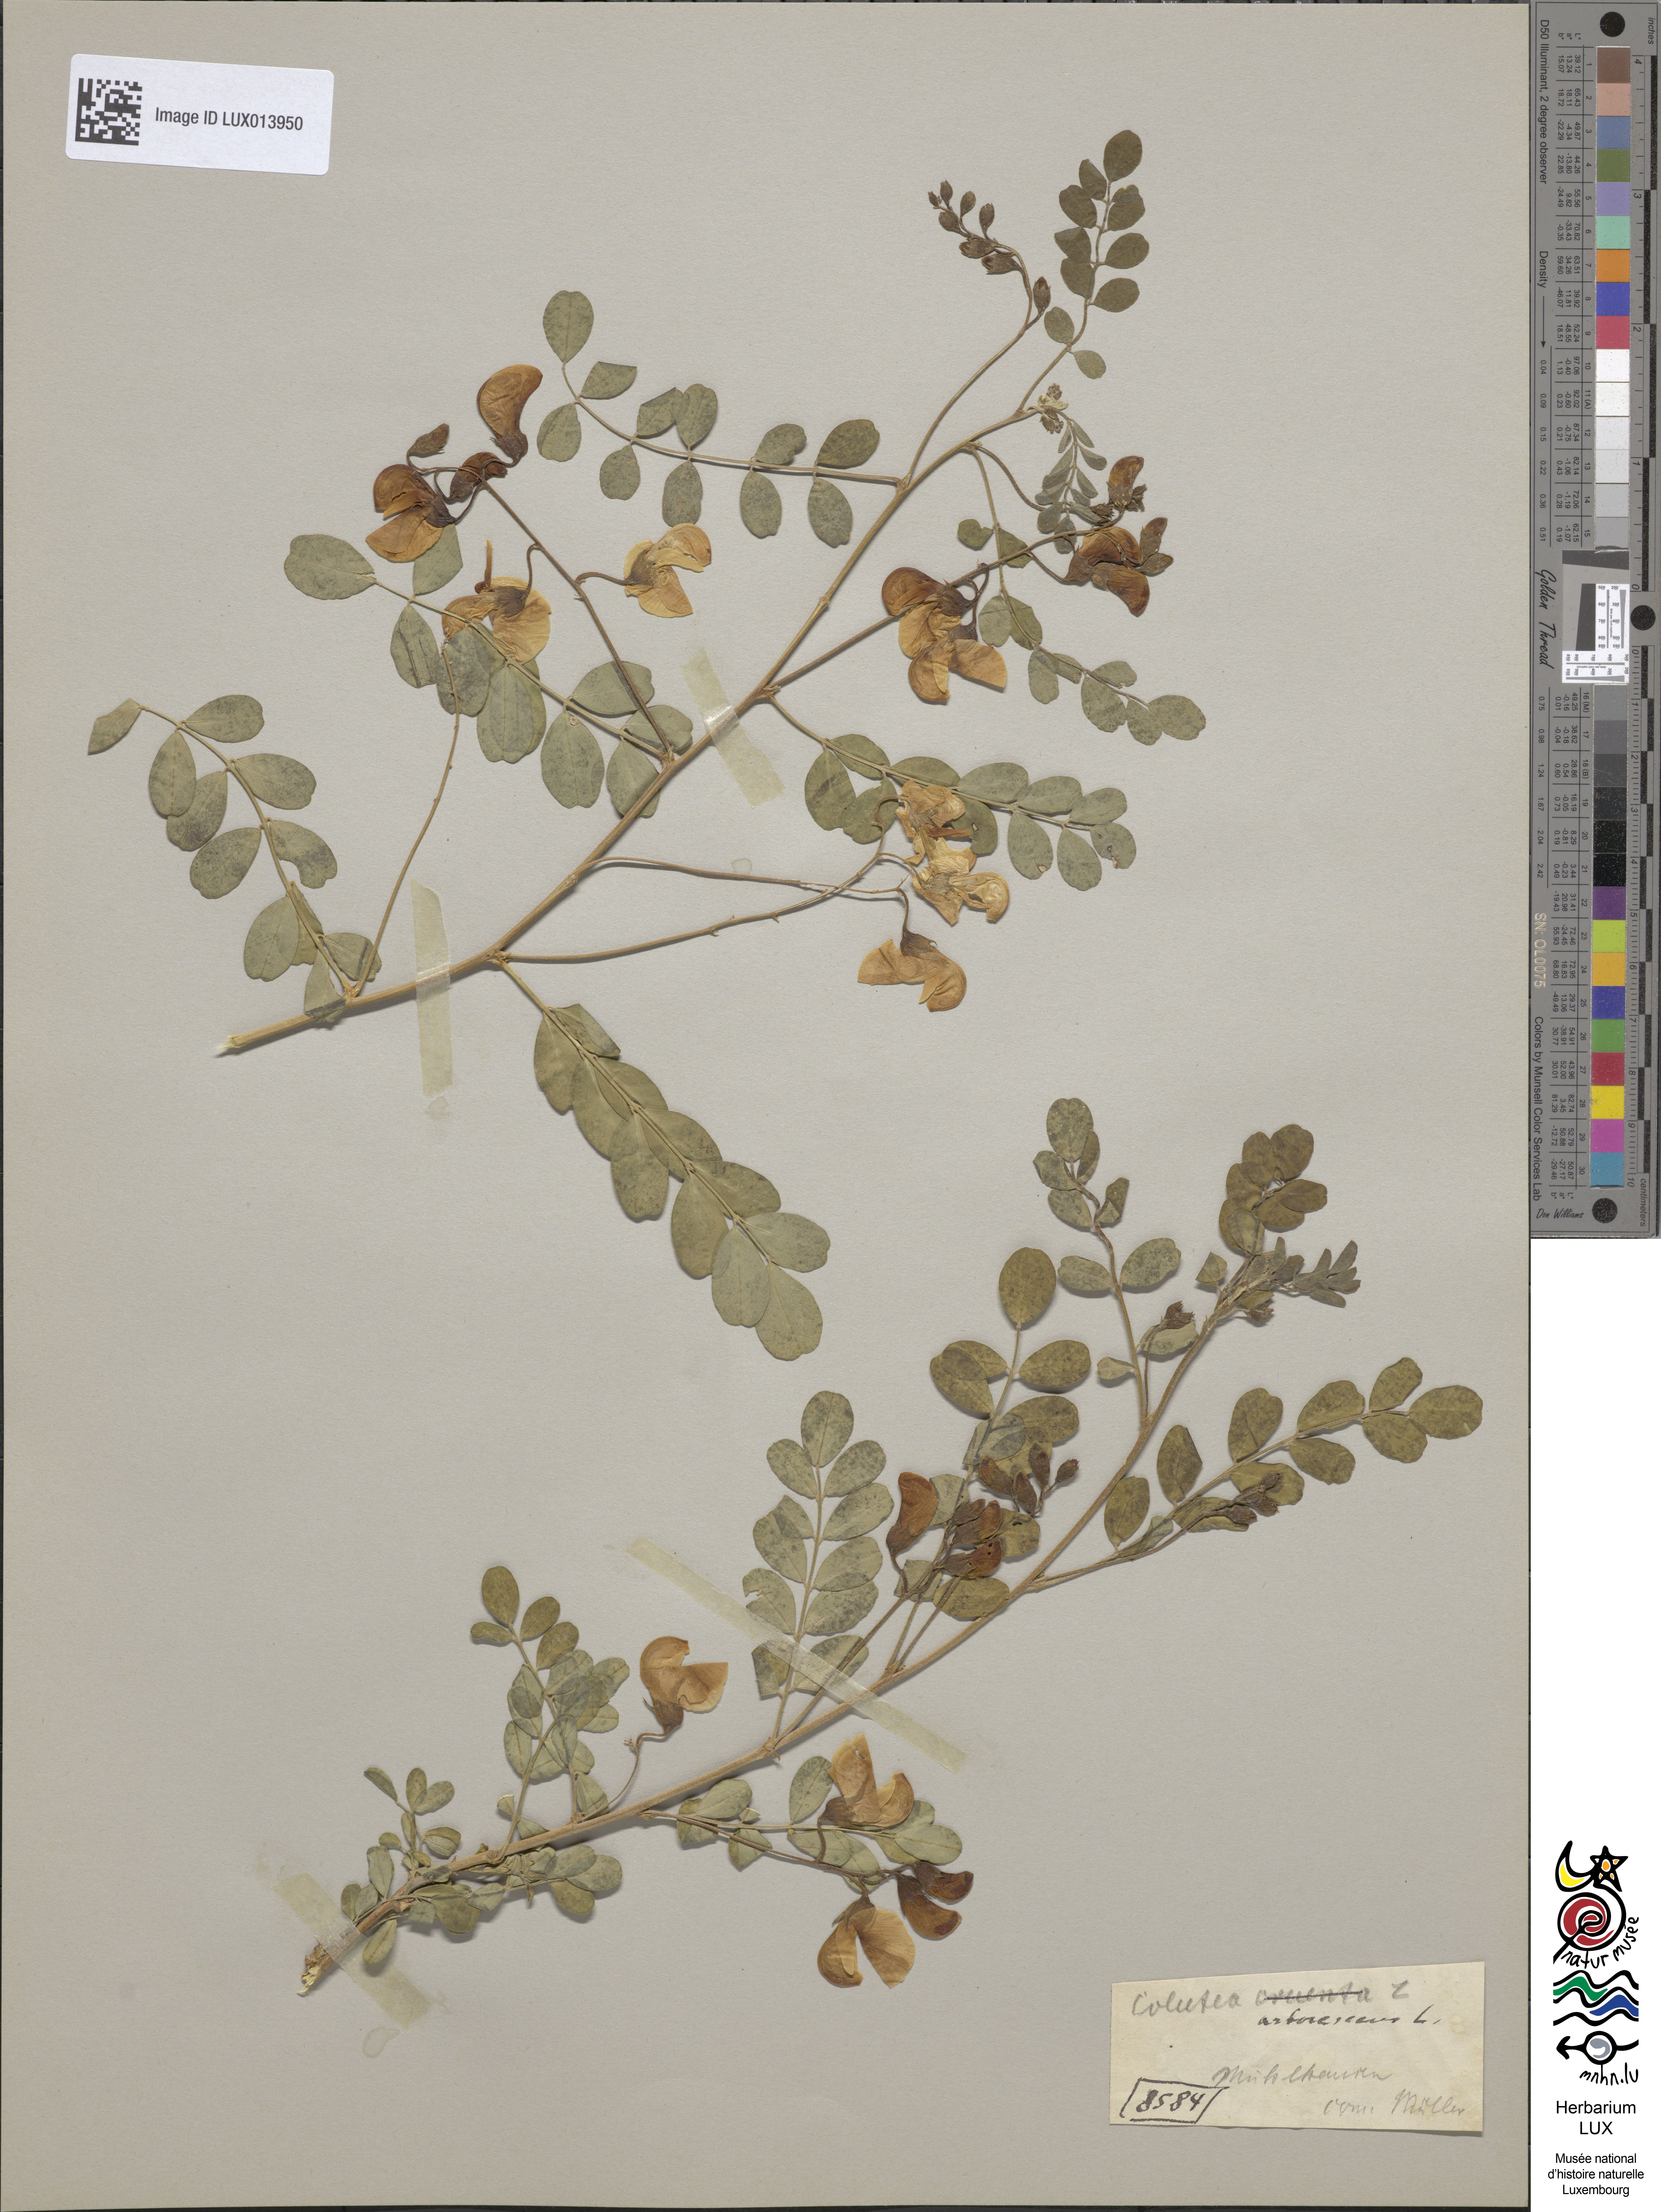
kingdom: Plantae
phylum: Tracheophyta
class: Magnoliopsida
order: Fabales
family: Fabaceae
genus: Colutea
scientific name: Colutea arborescens
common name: Bladder-senna
